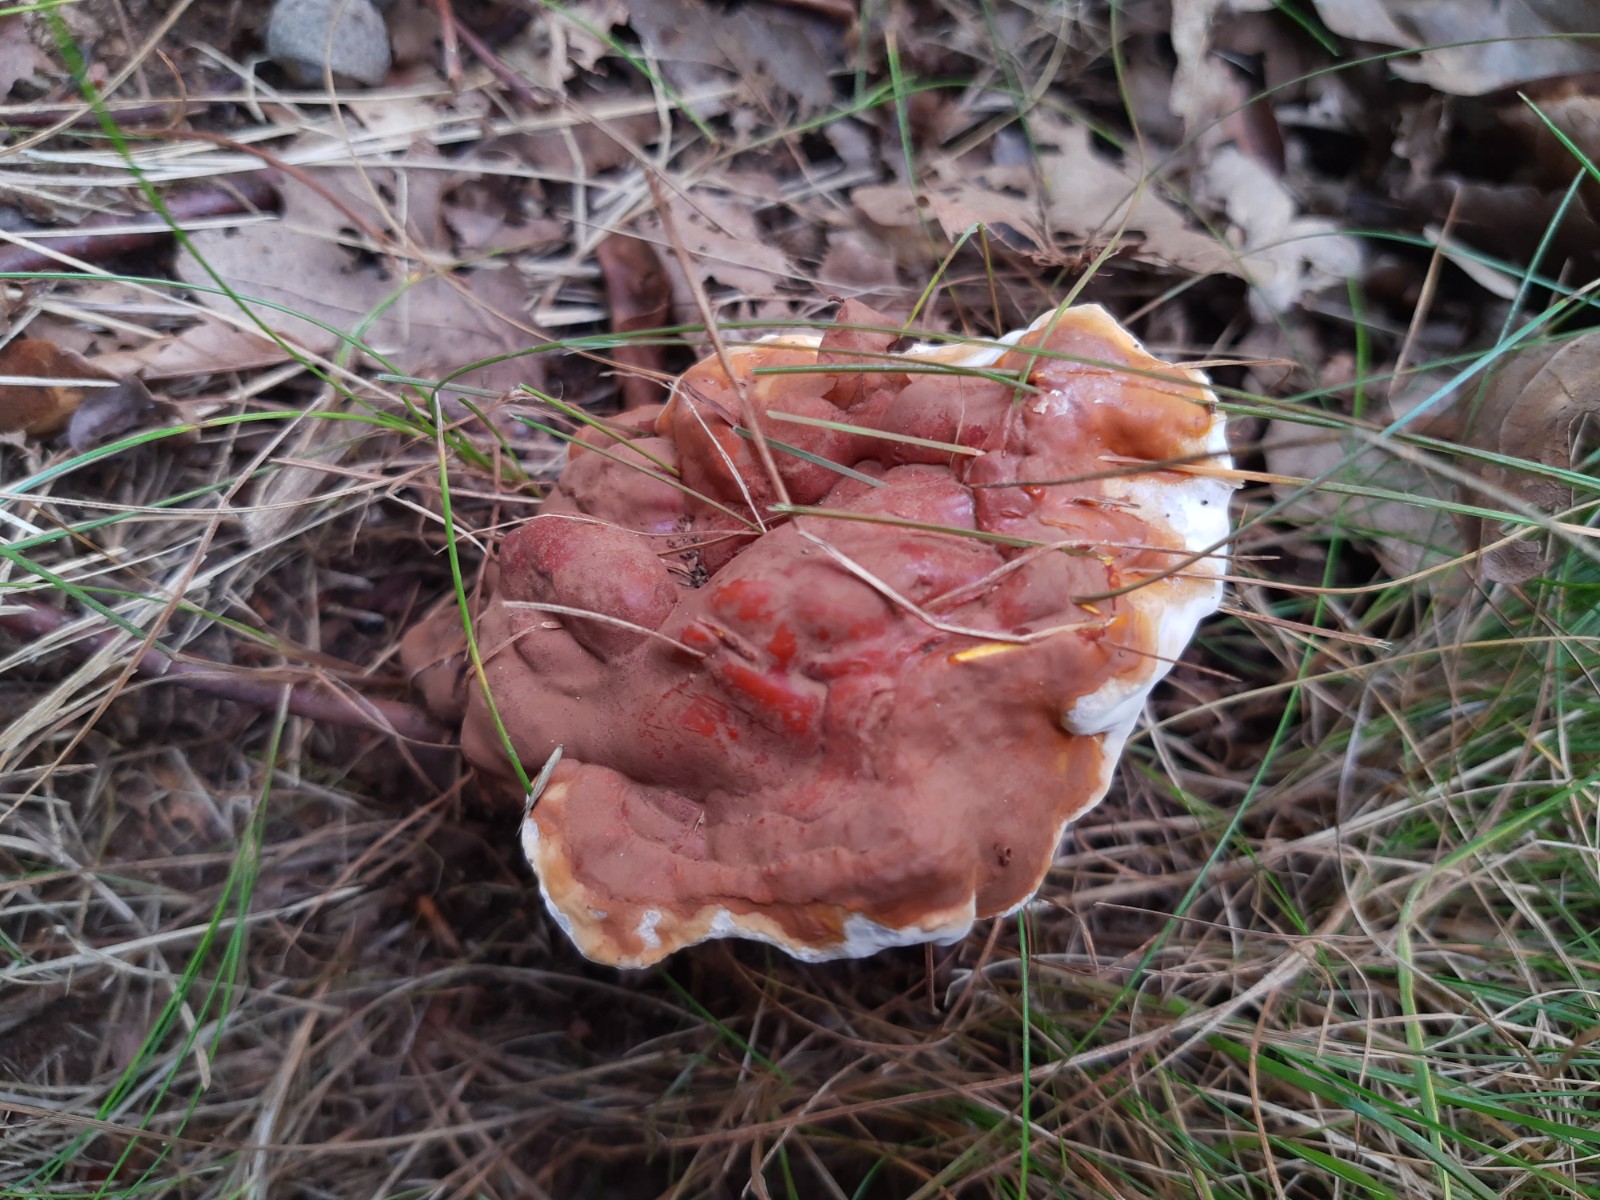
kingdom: Fungi
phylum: Basidiomycota
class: Agaricomycetes
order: Polyporales
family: Polyporaceae
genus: Ganoderma
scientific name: Ganoderma lucidum
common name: skinnende lakporesvamp
